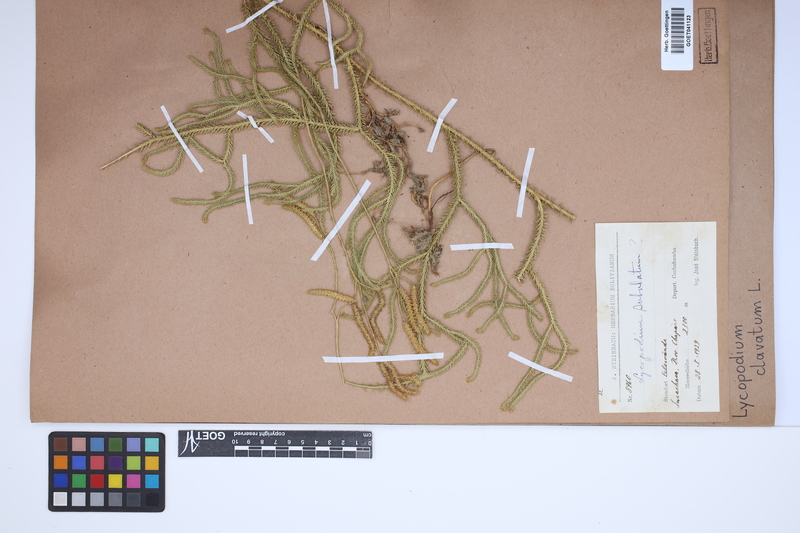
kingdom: Plantae
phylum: Tracheophyta
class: Lycopodiopsida
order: Lycopodiales
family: Lycopodiaceae
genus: Lycopodium
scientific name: Lycopodium clavatum
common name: Stag's-horn clubmoss
